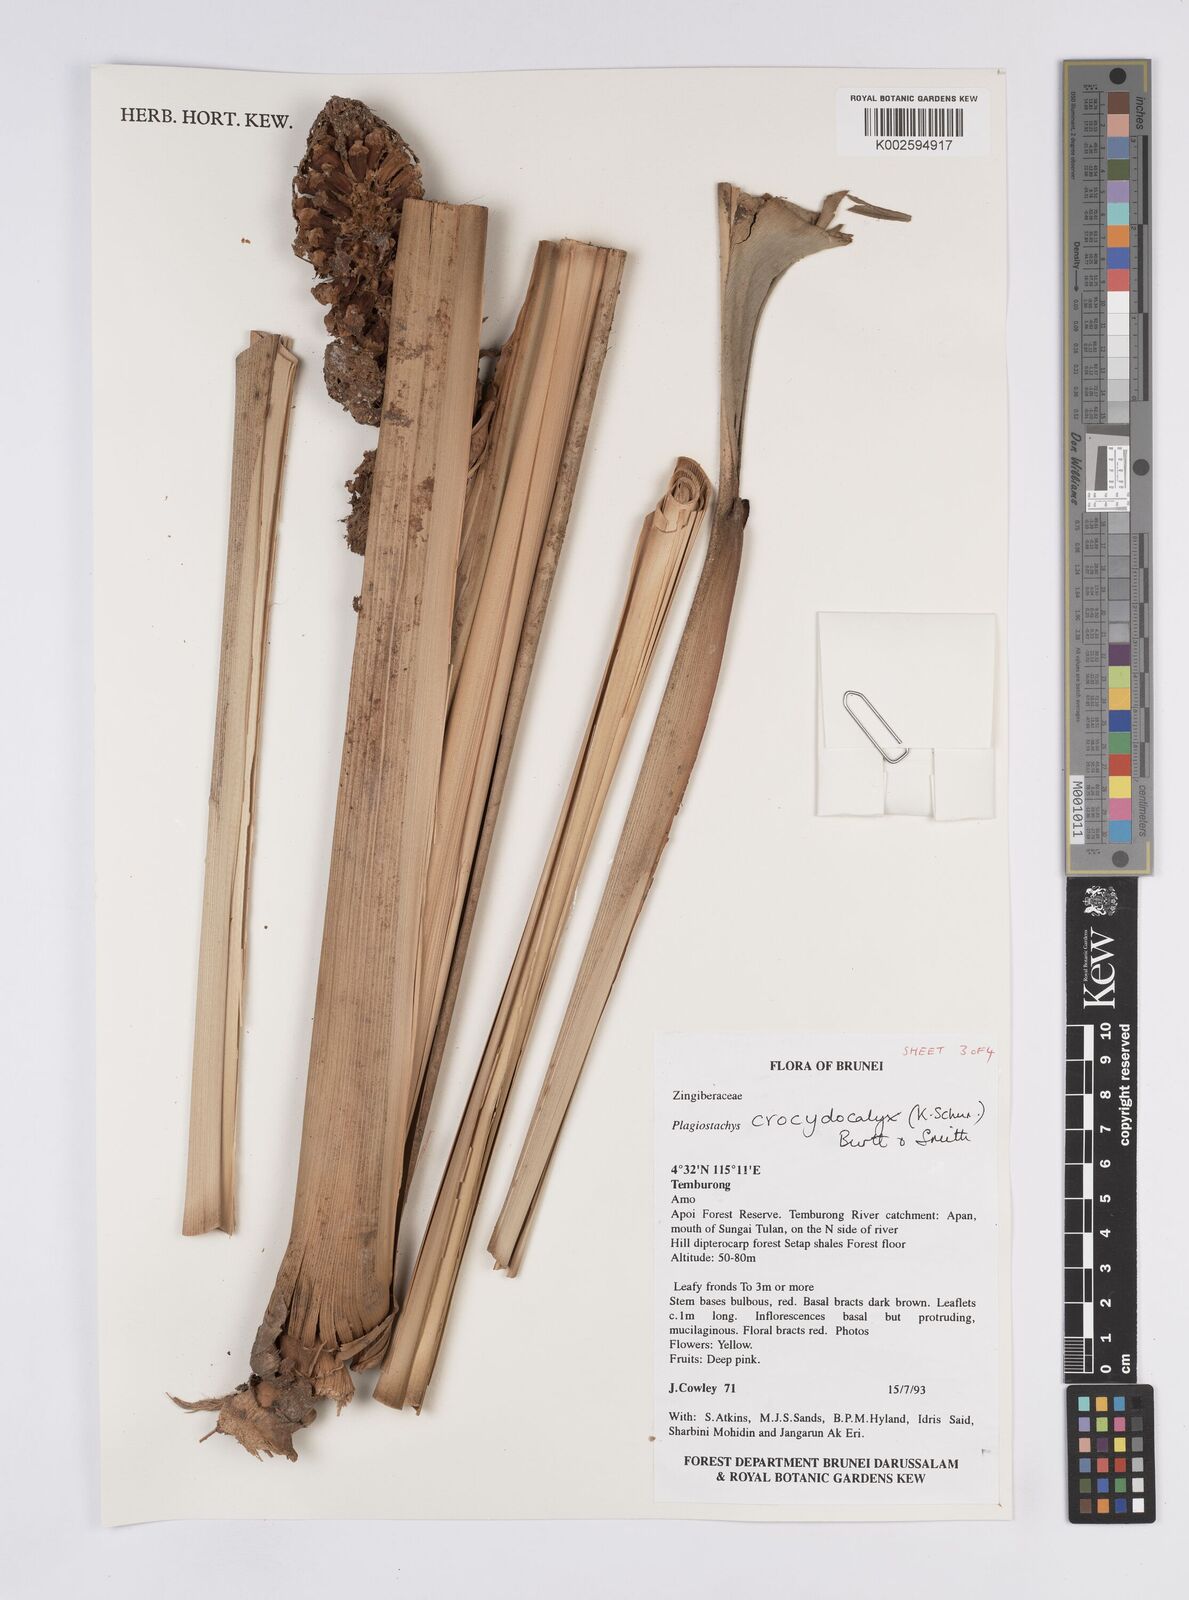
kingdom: Plantae
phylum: Tracheophyta
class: Liliopsida
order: Zingiberales
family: Zingiberaceae
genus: Plagiostachys
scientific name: Plagiostachys crocydocalyx
